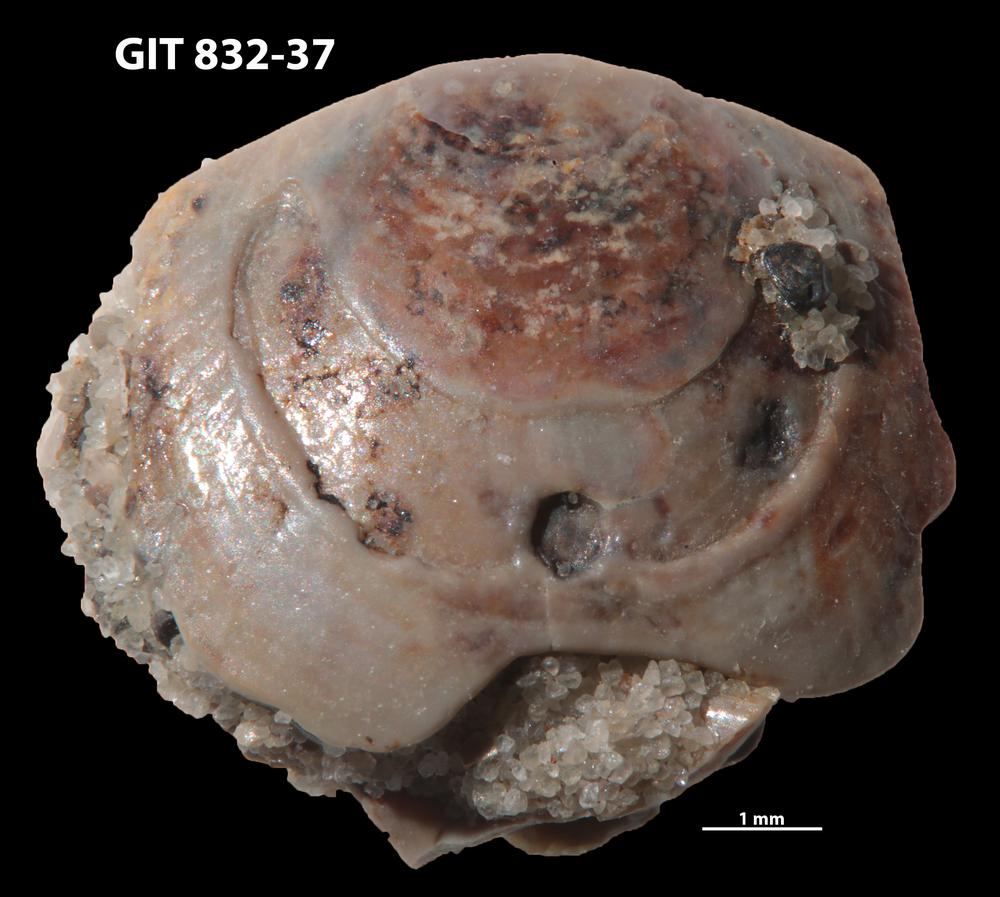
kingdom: Animalia
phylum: Brachiopoda
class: Lingulata
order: Lingulida
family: Obolidae
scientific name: Obolidae
